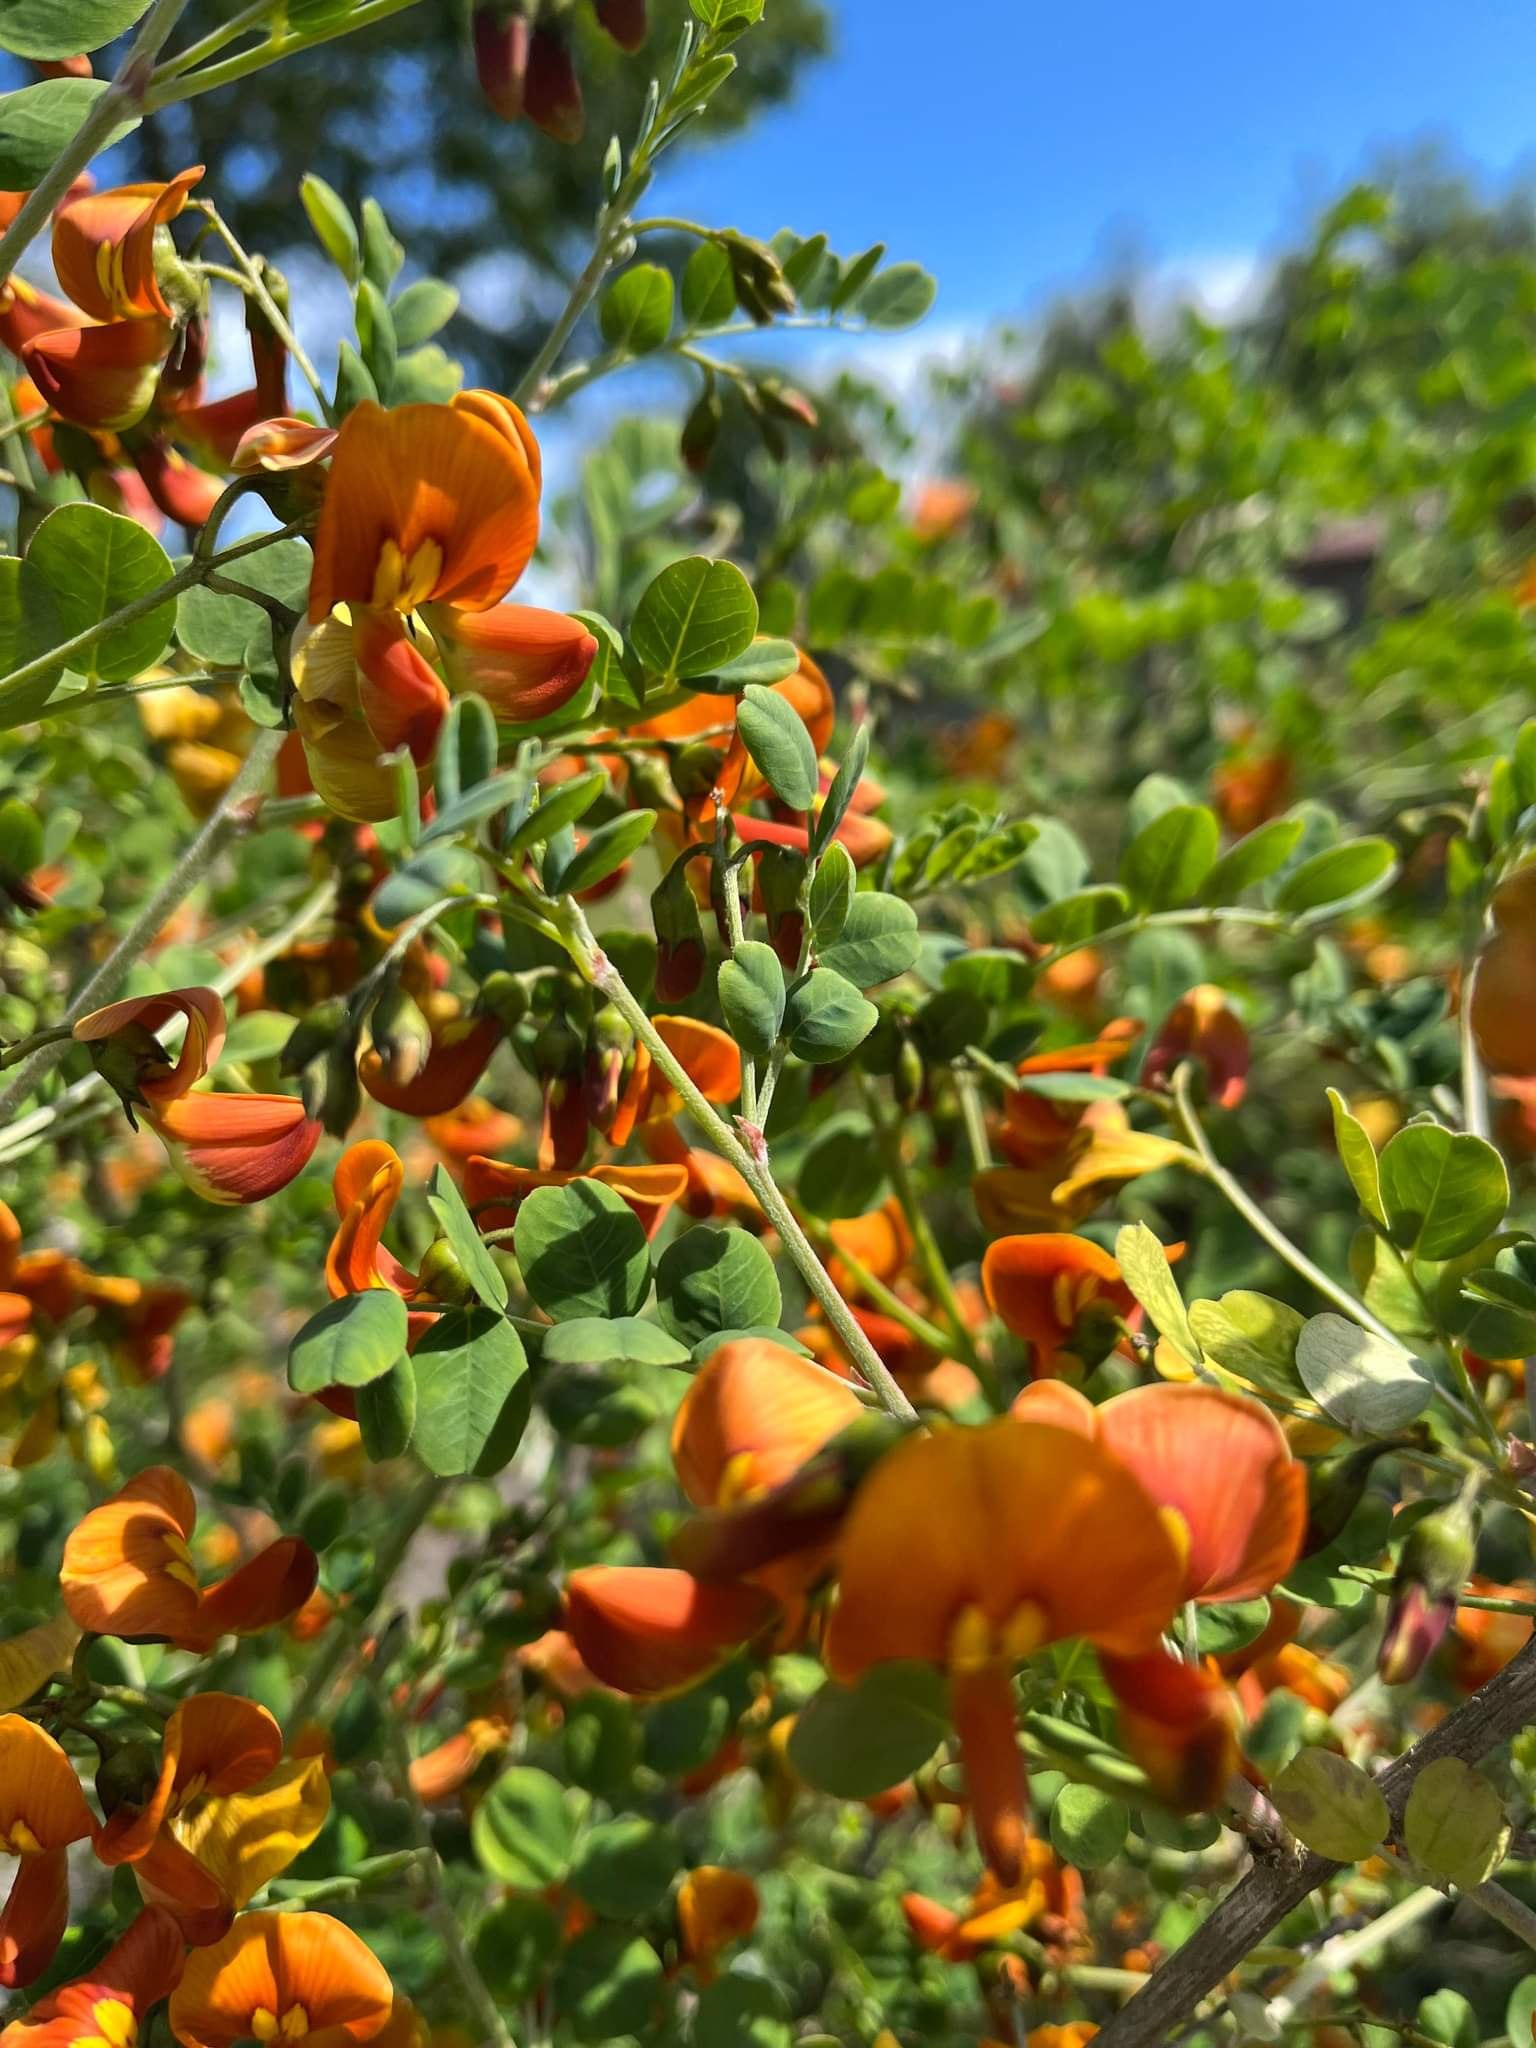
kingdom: Plantae
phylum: Tracheophyta
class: Magnoliopsida
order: Fabales
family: Fabaceae
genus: Colutea
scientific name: Colutea orientalis
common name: Tykbladet blærebælg
